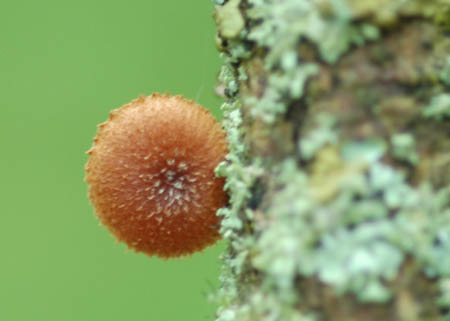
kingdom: Fungi
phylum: Basidiomycota
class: Agaricomycetes
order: Agaricales
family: Tubariaceae
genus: Phaeomarasmius
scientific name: Phaeomarasmius erinaceus
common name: spidsskælhat
